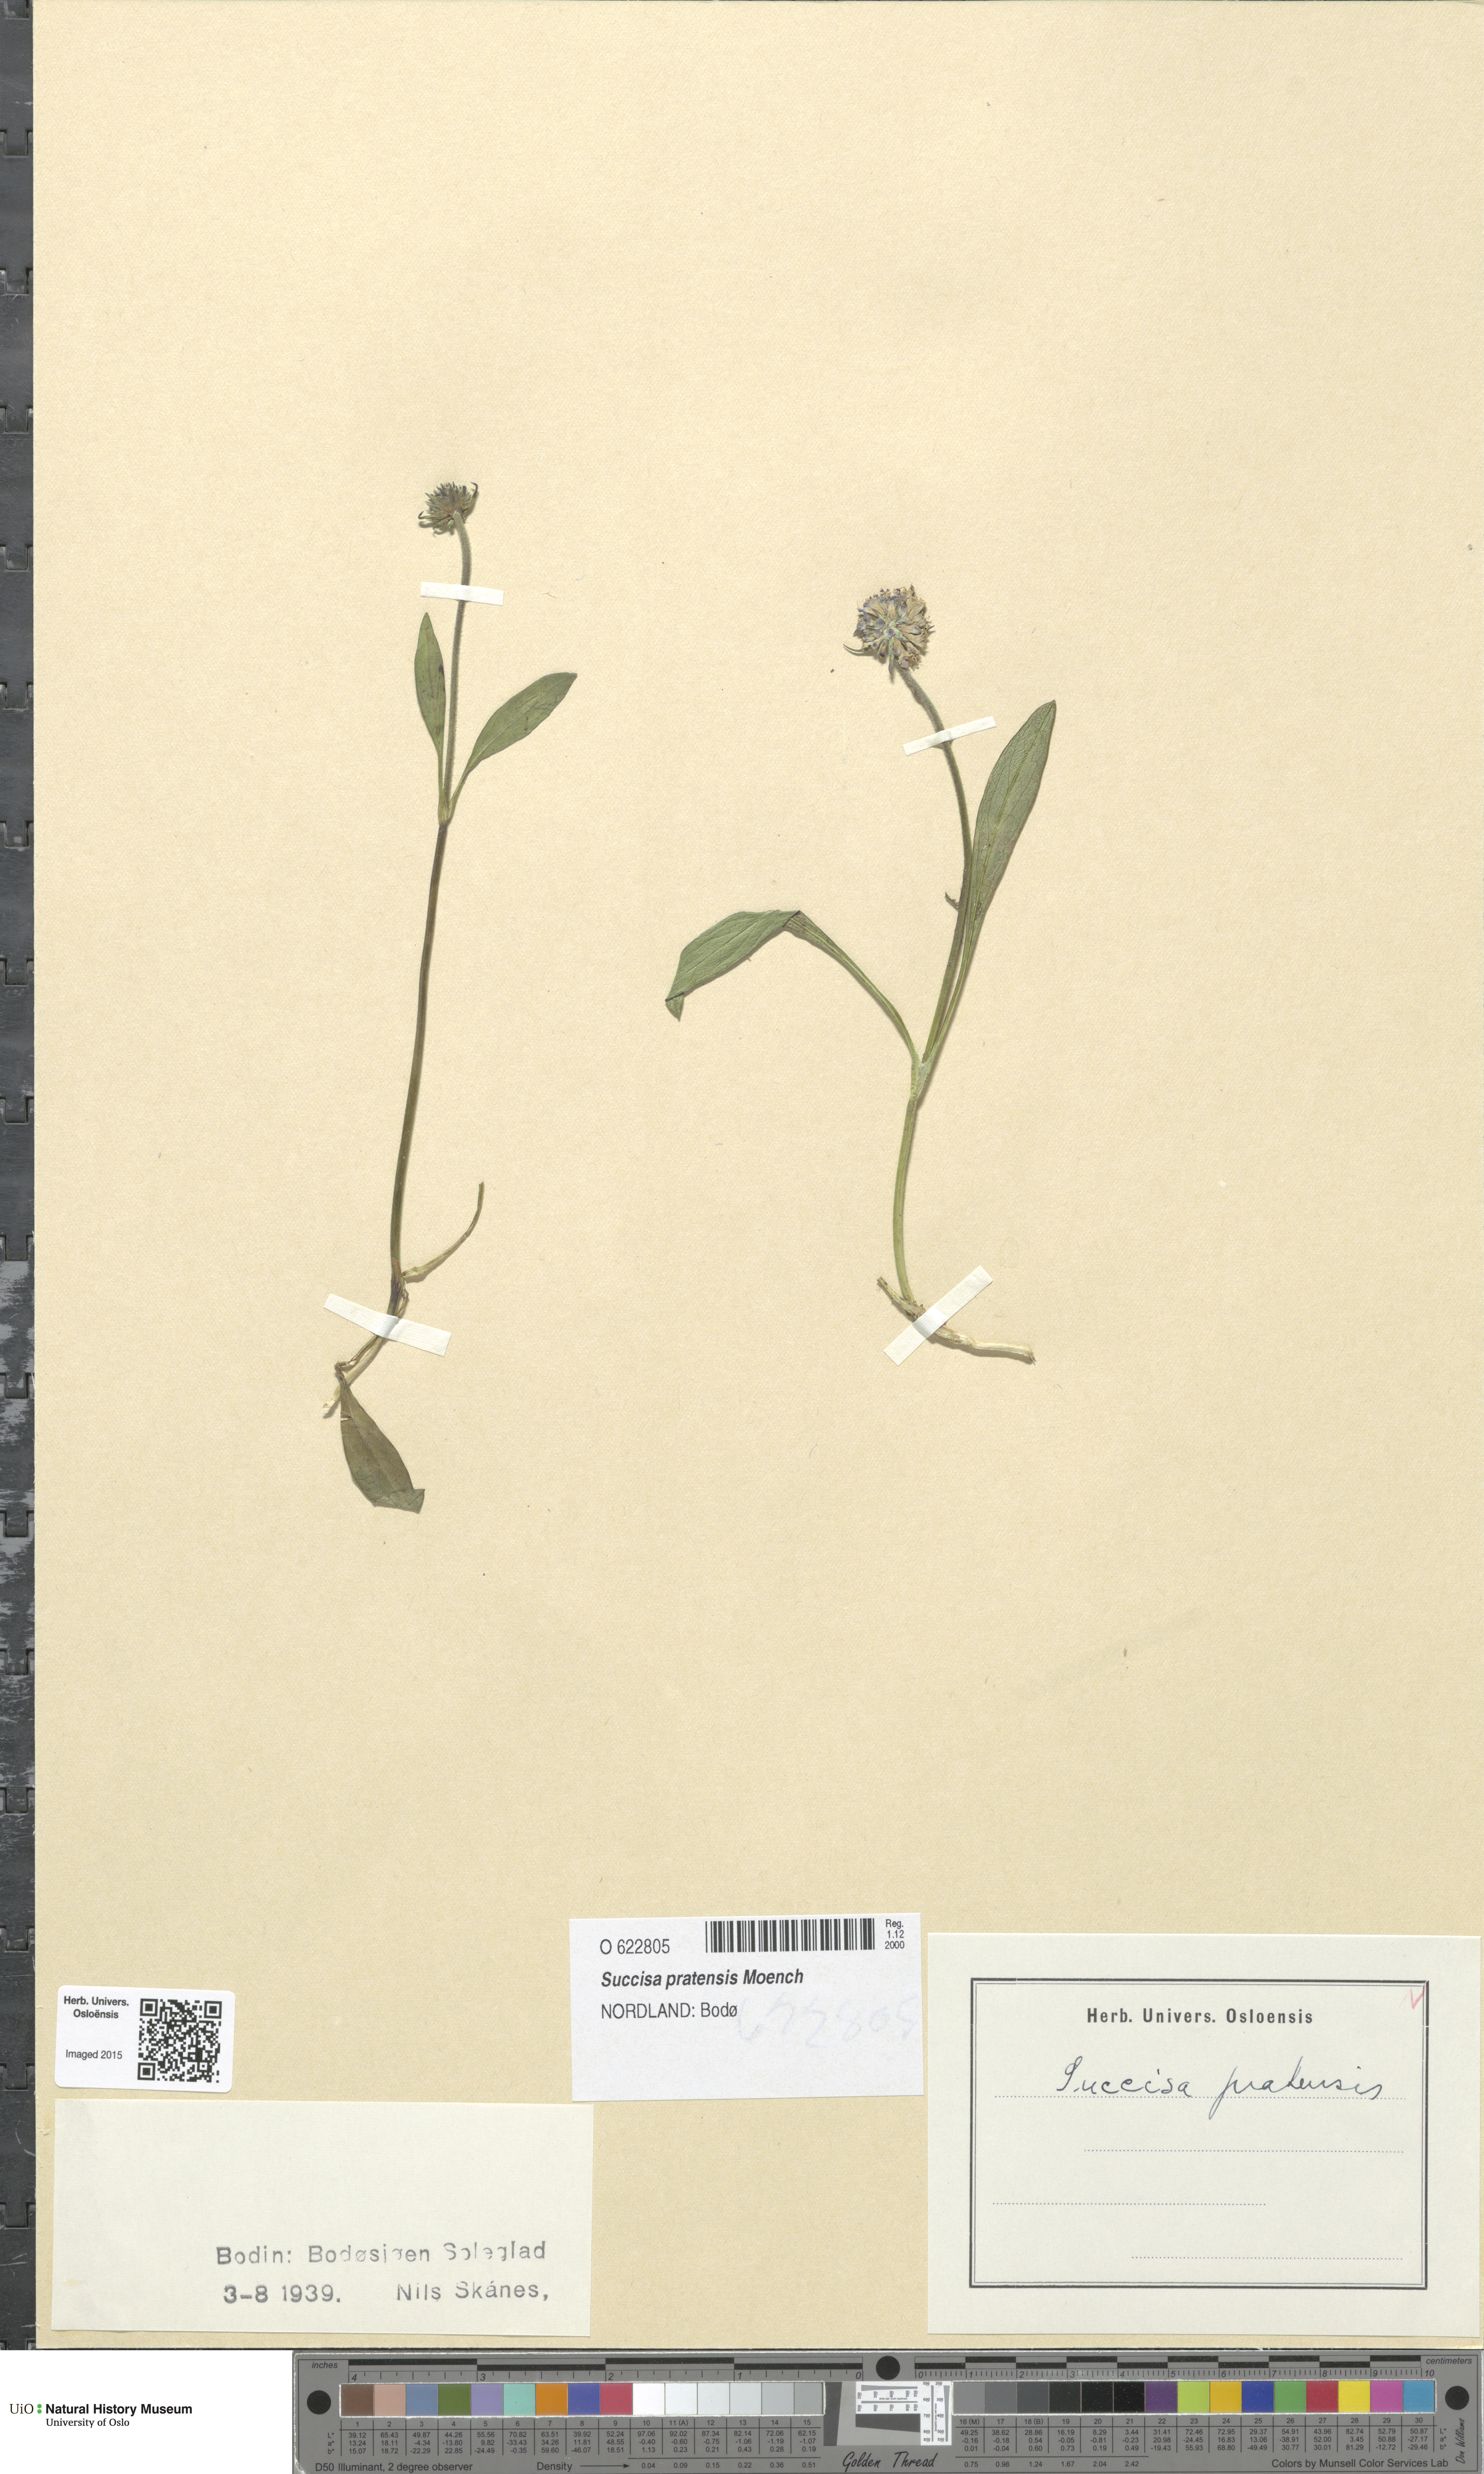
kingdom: Plantae
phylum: Tracheophyta
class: Magnoliopsida
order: Dipsacales
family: Caprifoliaceae
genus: Succisa
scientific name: Succisa pratensis
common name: Devil's-bit
